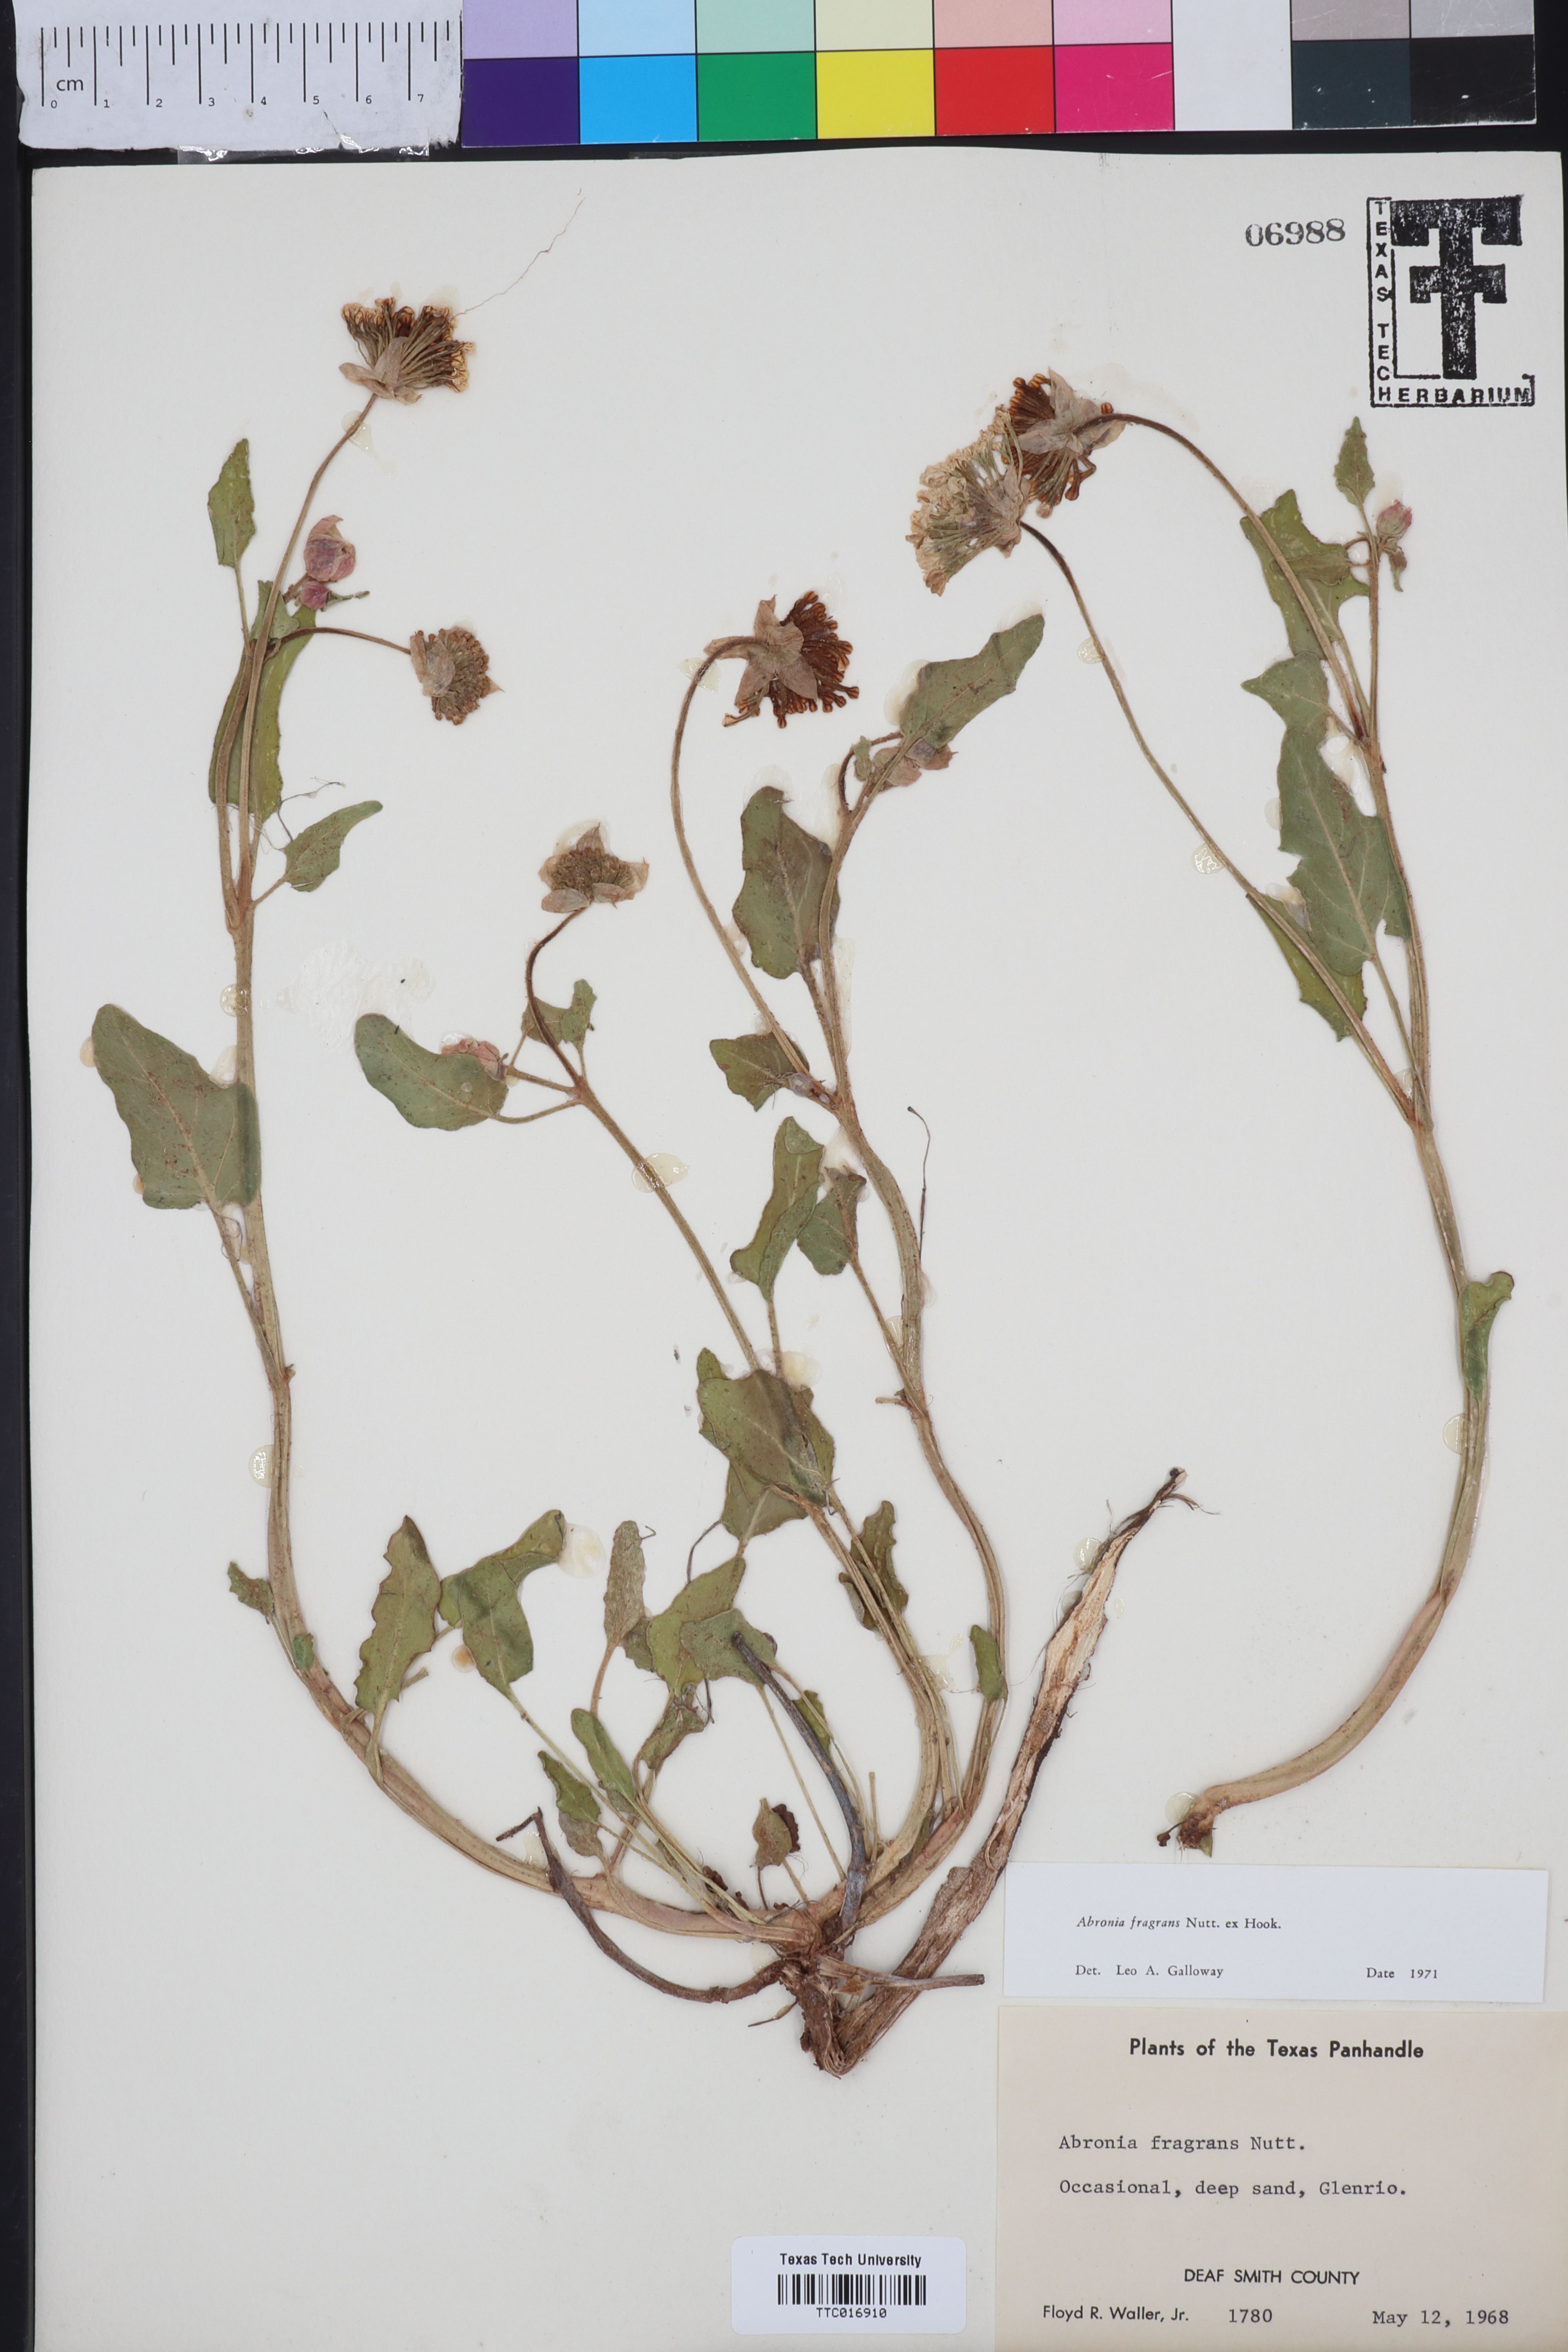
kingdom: Plantae
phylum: Tracheophyta
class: Magnoliopsida
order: Caryophyllales
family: Nyctaginaceae
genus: Abronia
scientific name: Abronia fragrans
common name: Fragrant sand-verbena
